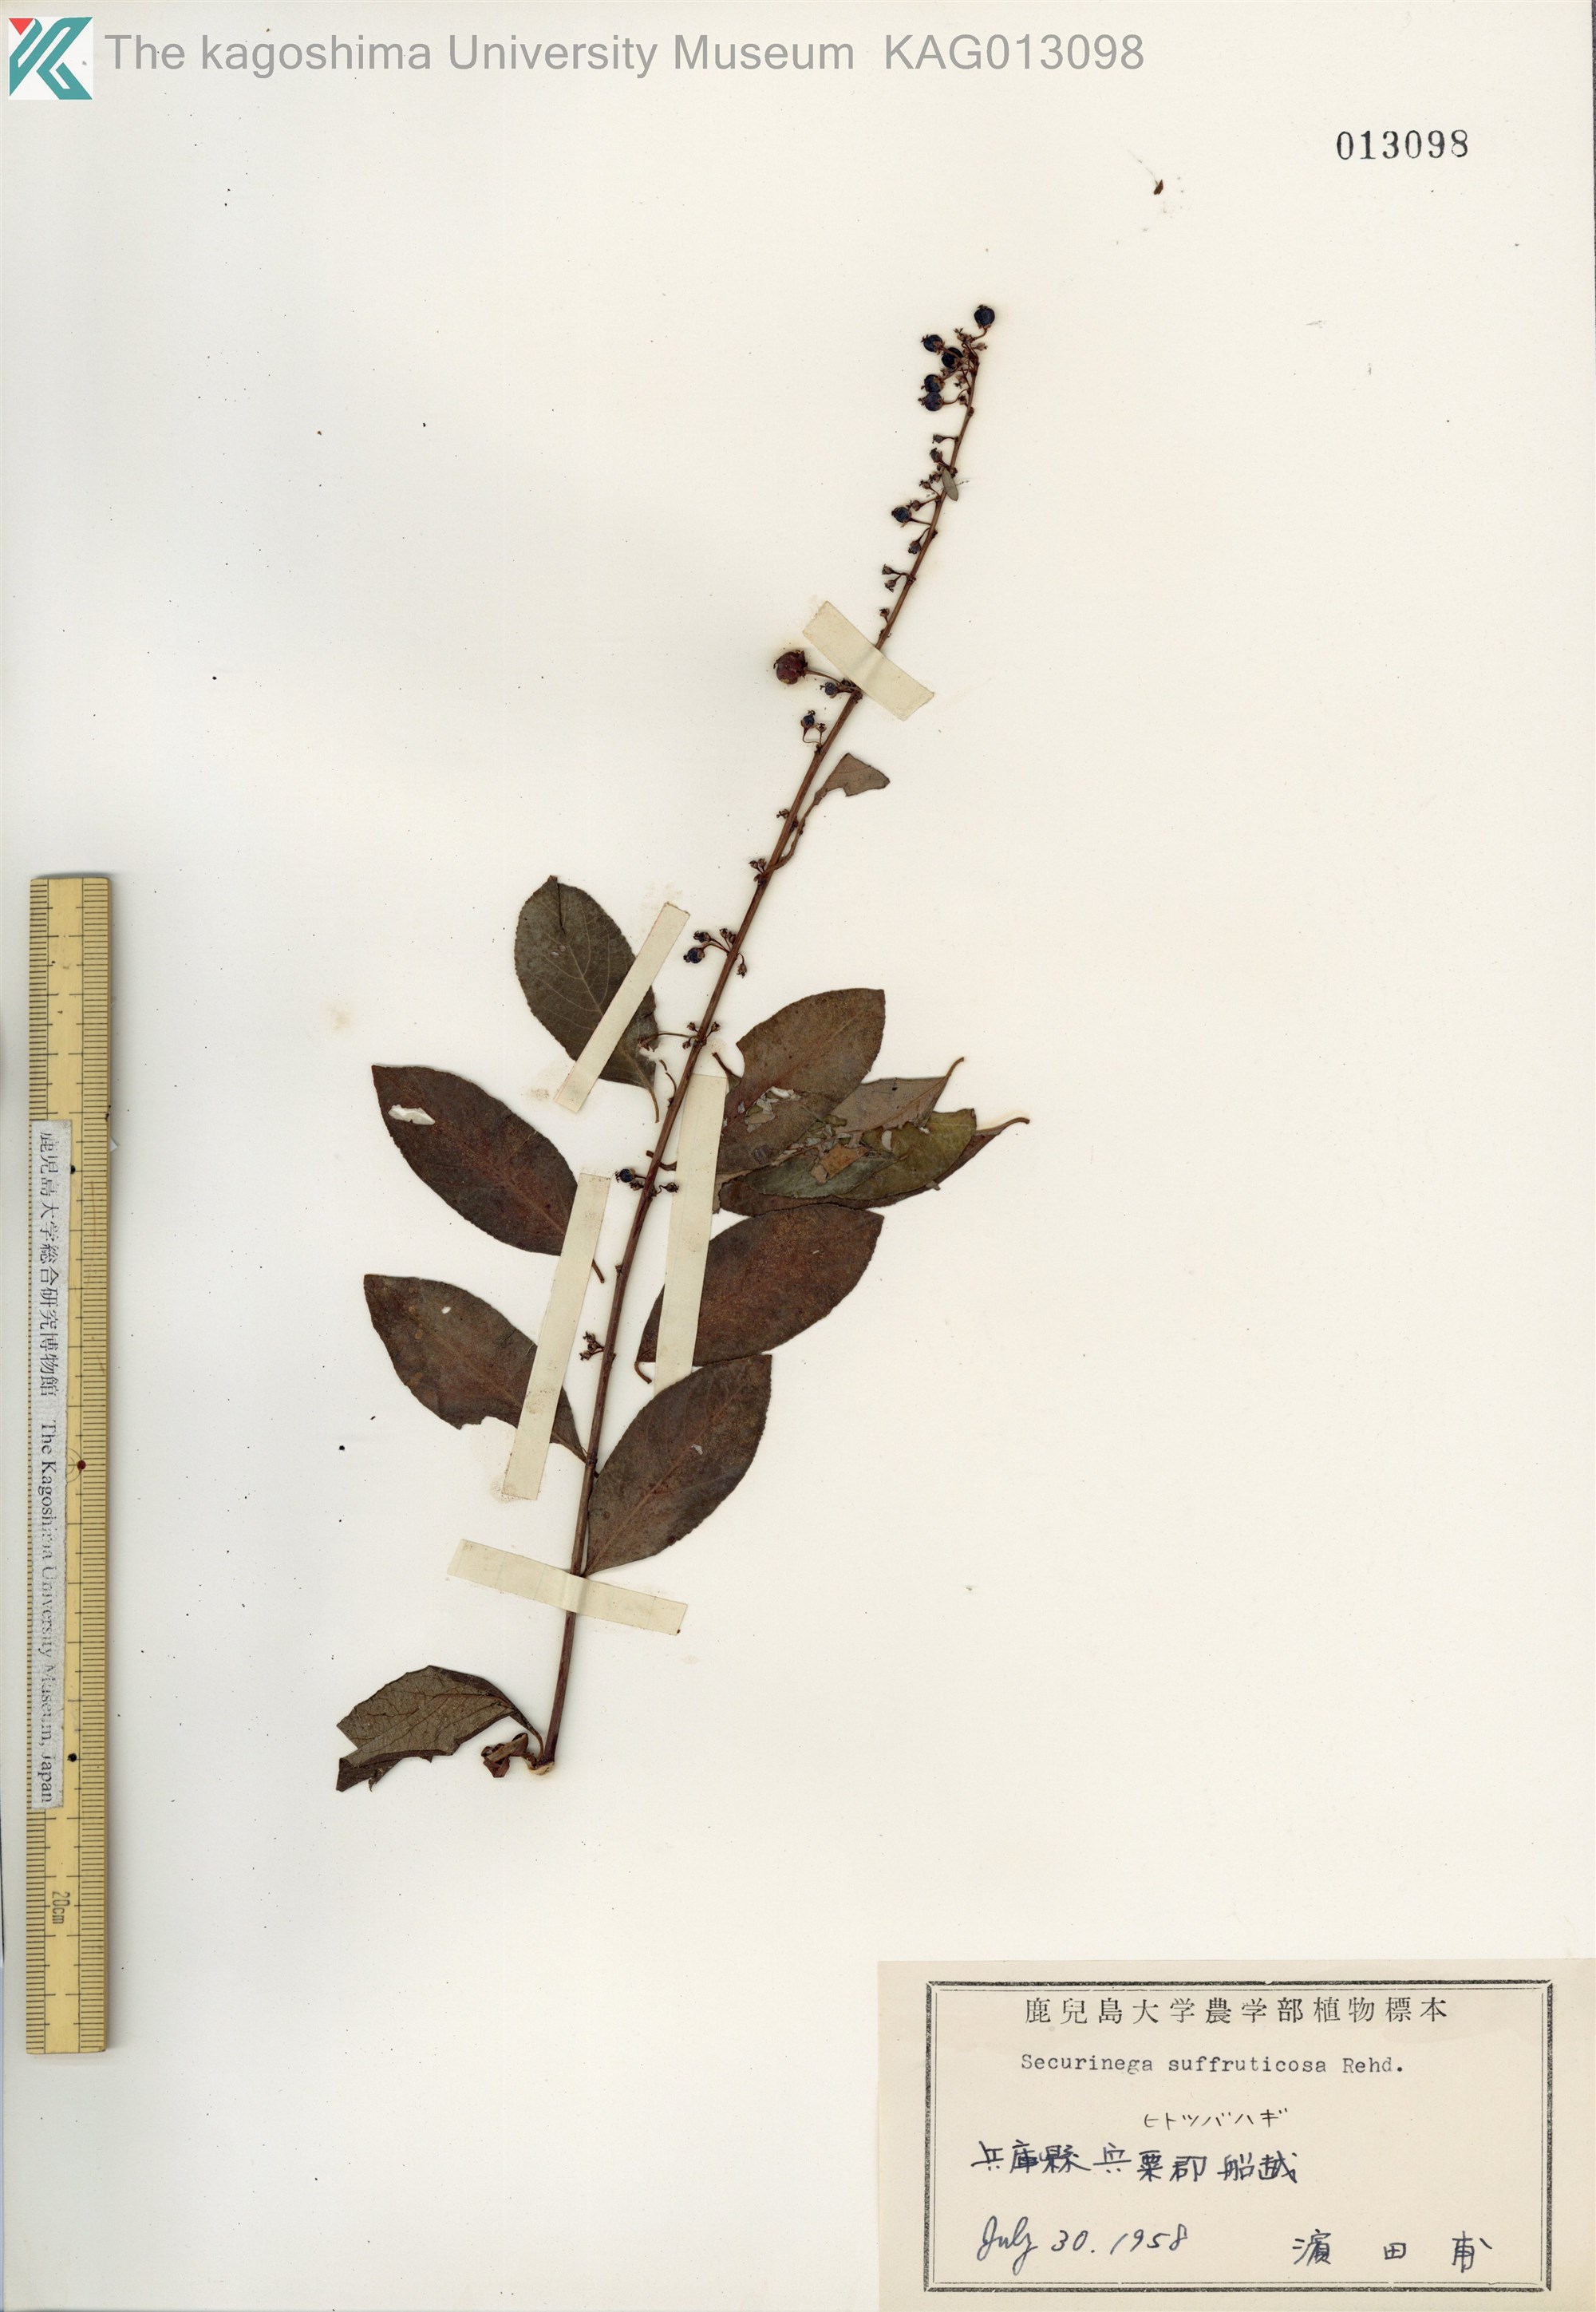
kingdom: Plantae
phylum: Tracheophyta
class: Magnoliopsida
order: Malpighiales
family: Phyllanthaceae
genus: Flueggea
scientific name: Flueggea suffruticosa
